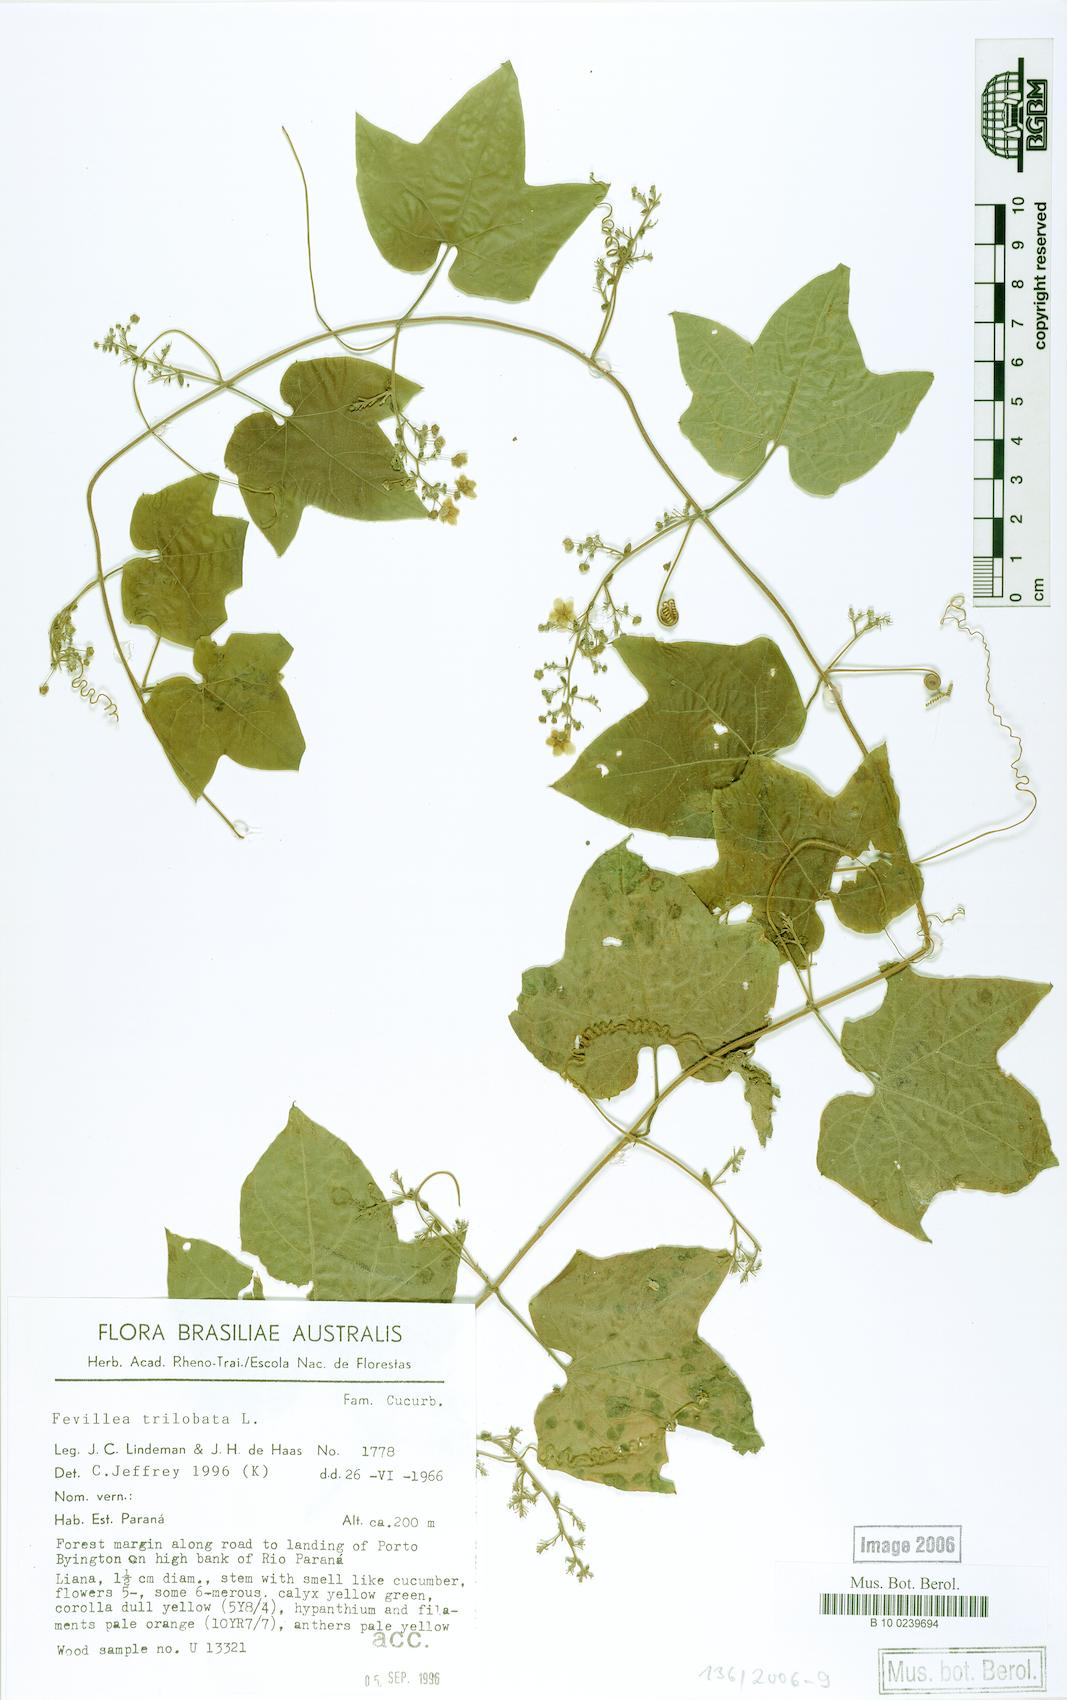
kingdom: Plantae
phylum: Tracheophyta
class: Magnoliopsida
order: Cucurbitales
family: Cucurbitaceae
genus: Fevillea
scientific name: Fevillea trilobata
